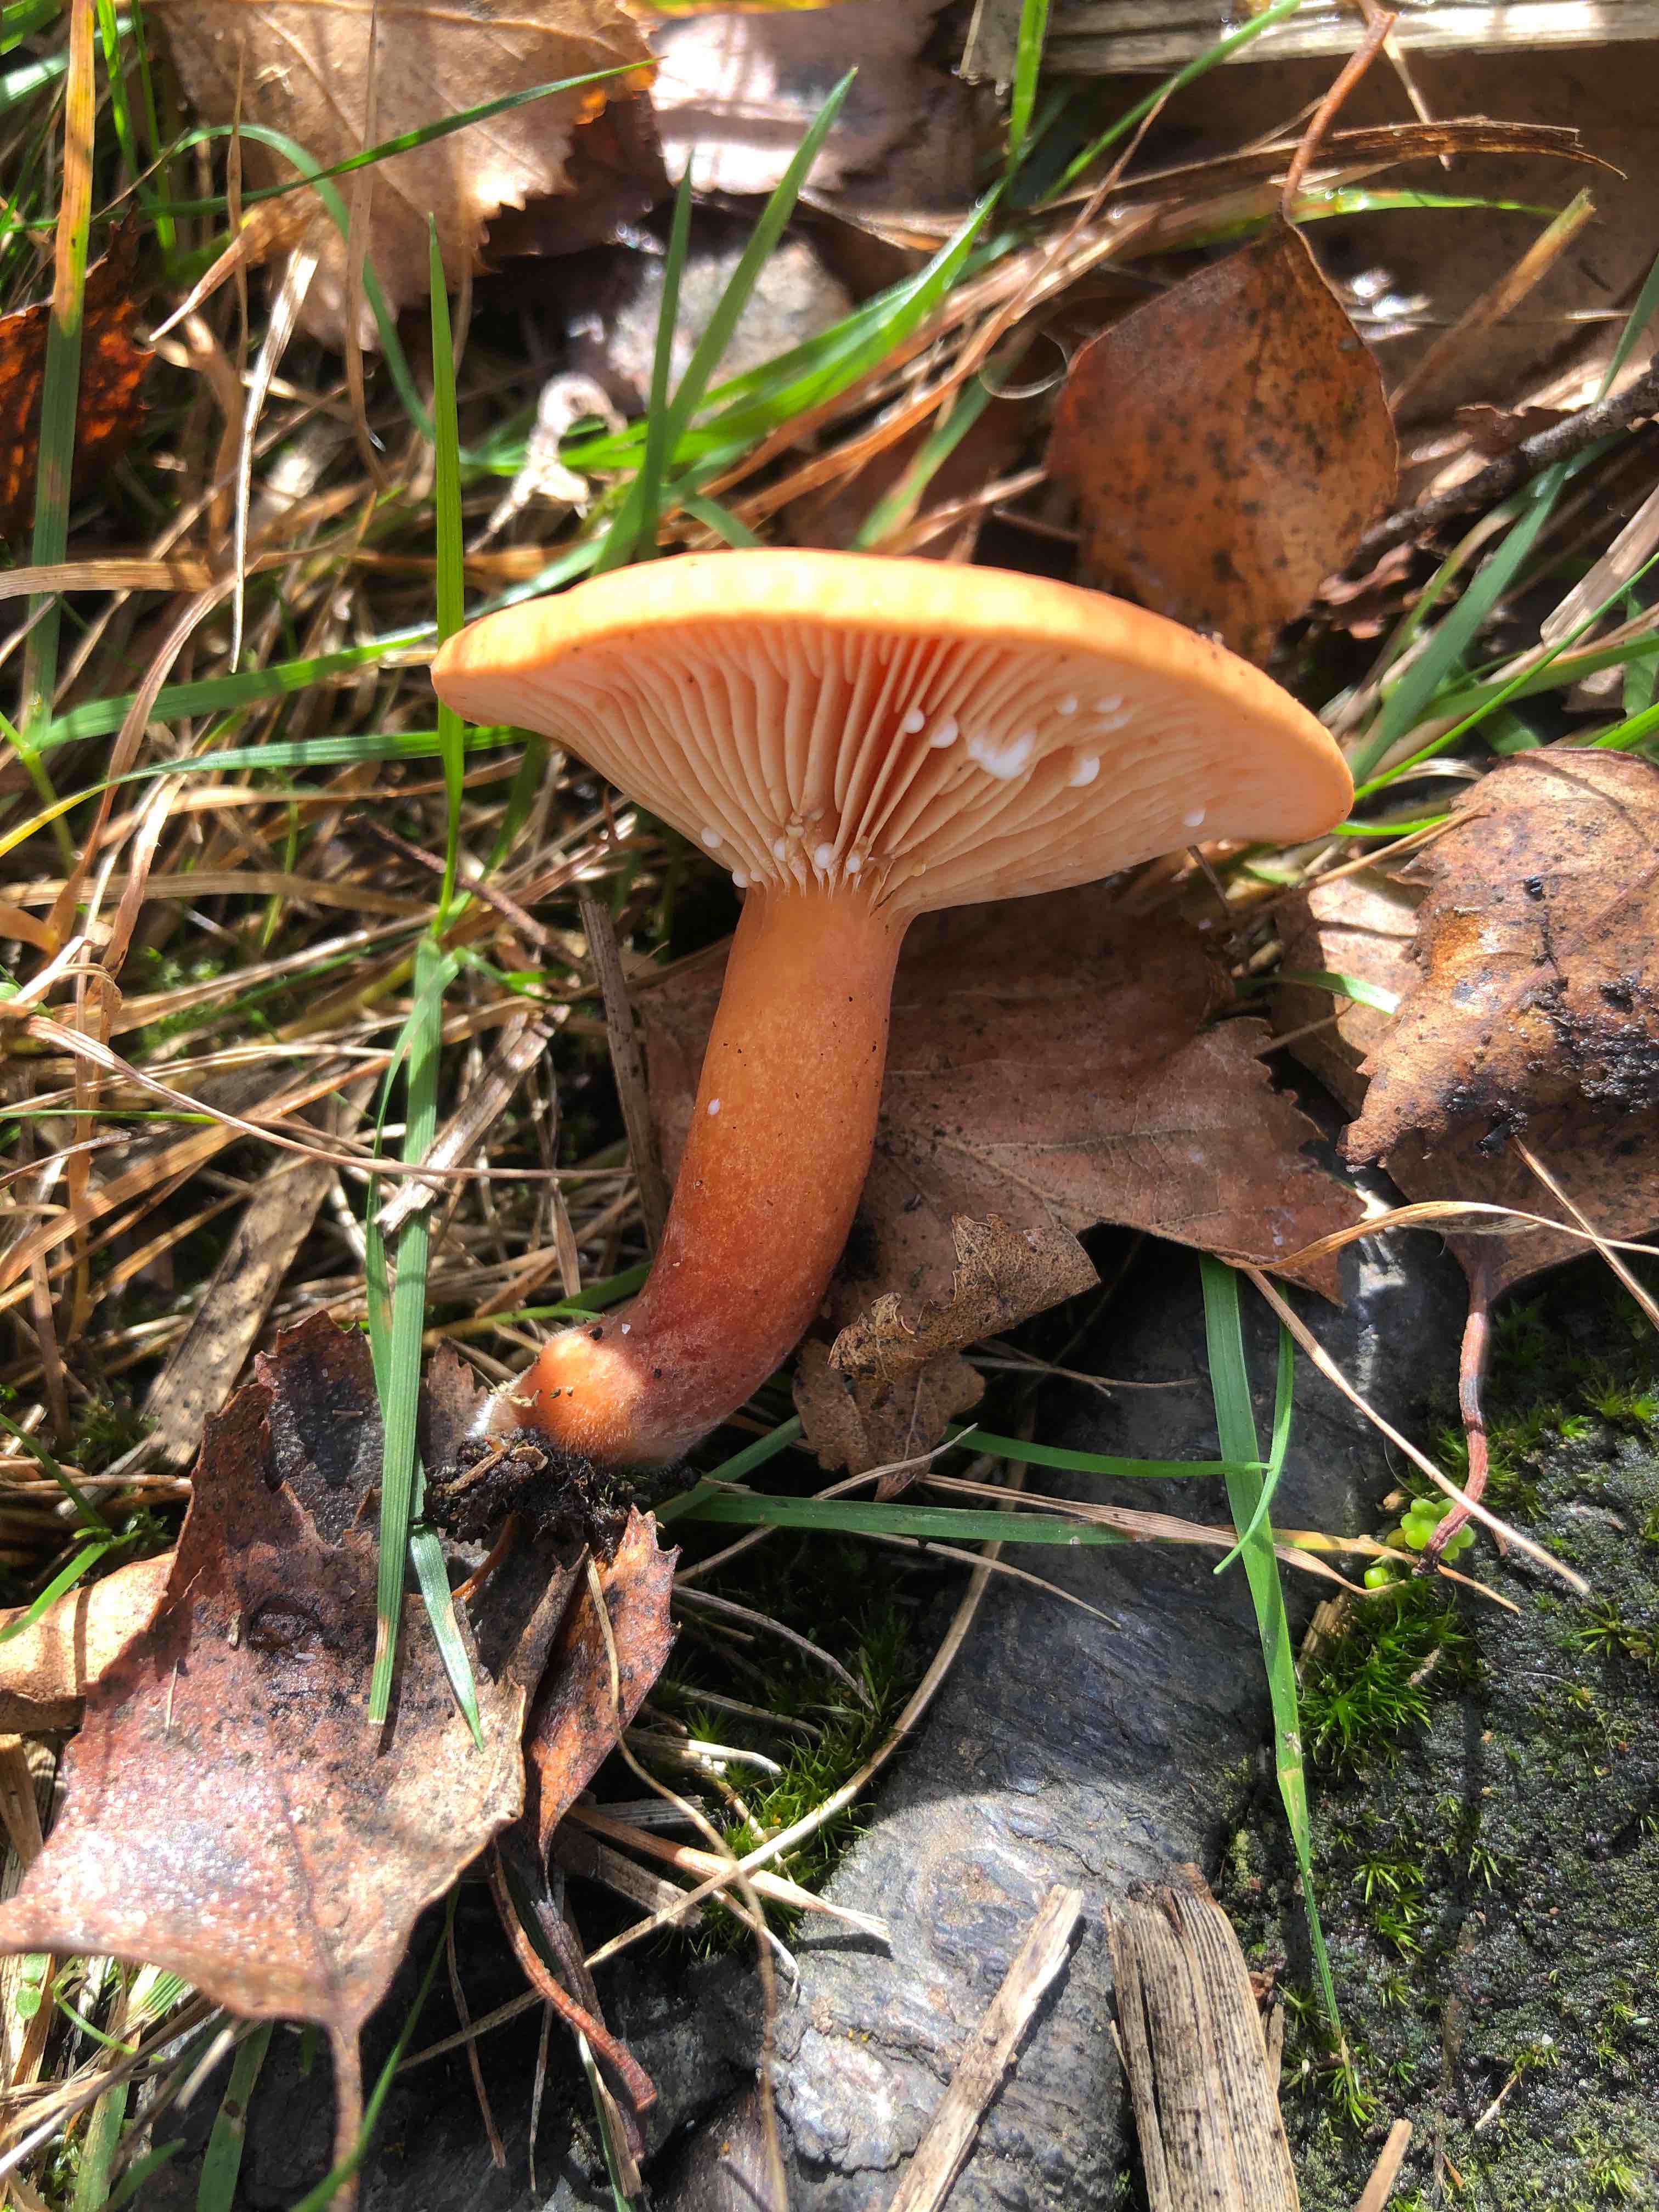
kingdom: Fungi
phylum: Basidiomycota
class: Agaricomycetes
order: Russulales
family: Russulaceae
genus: Lactarius
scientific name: Lactarius aurantiacus
